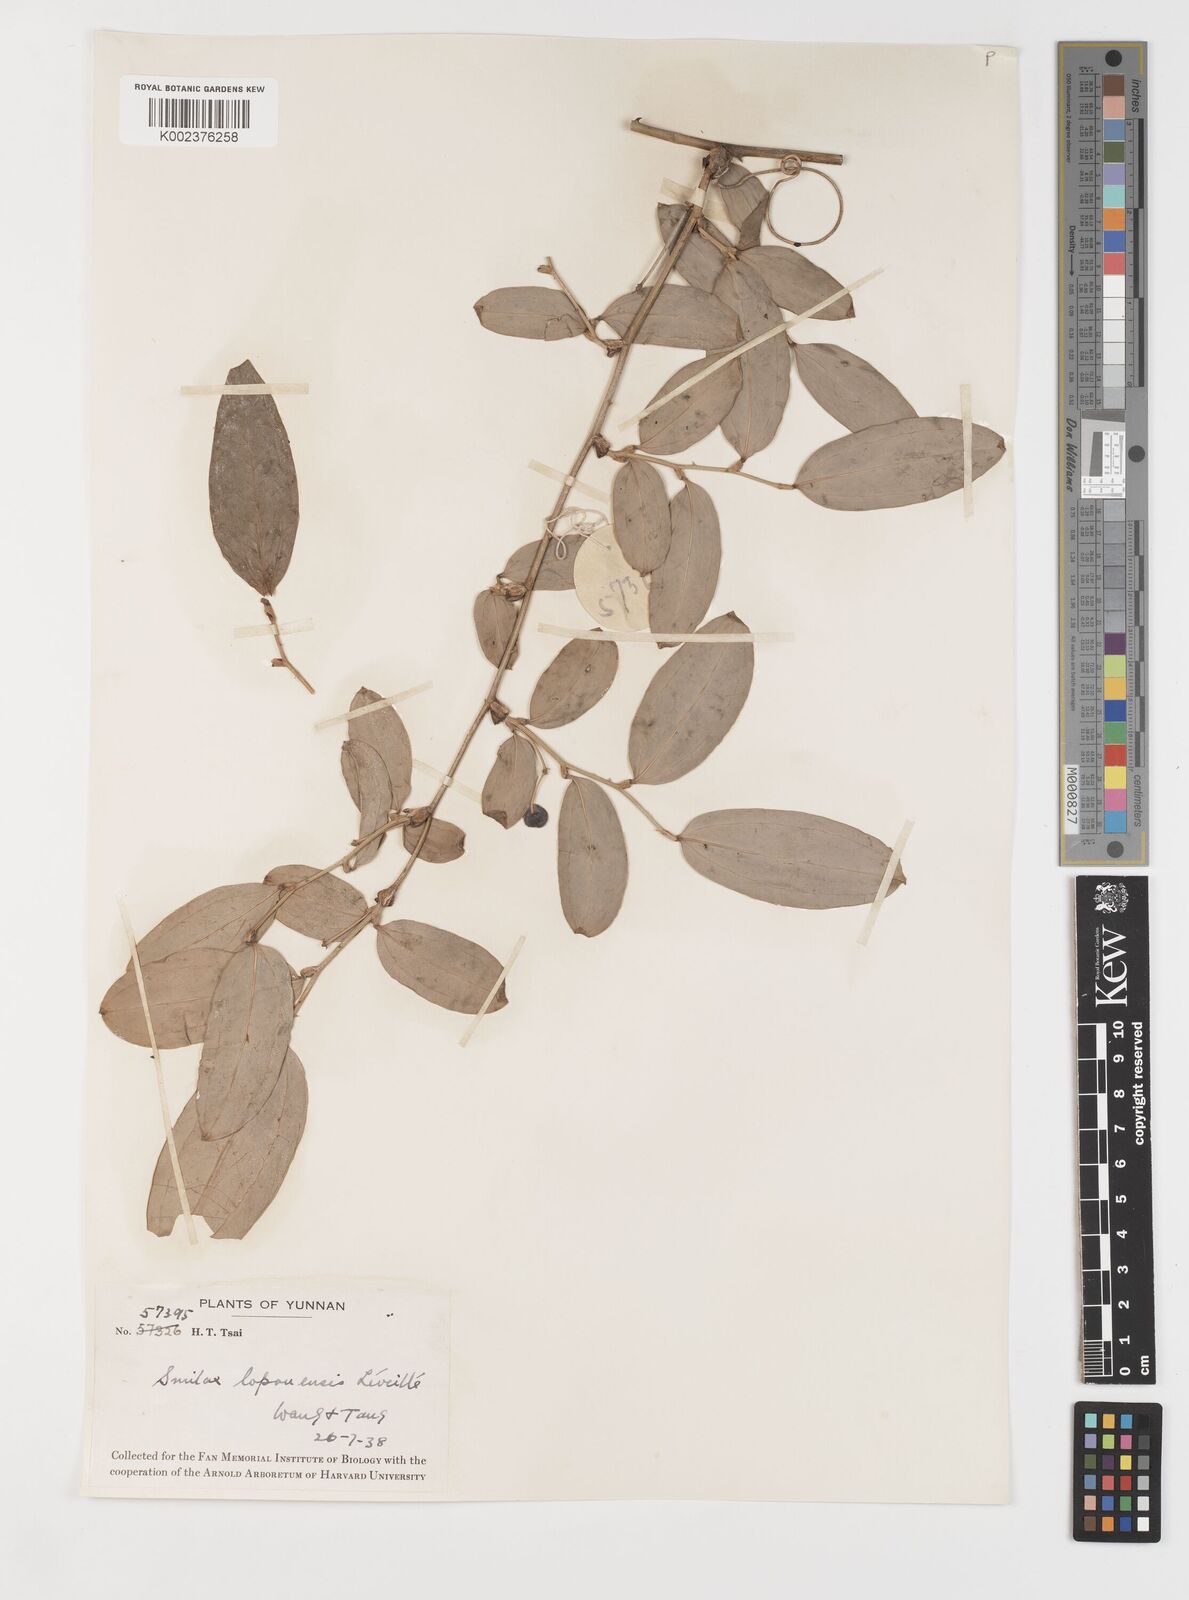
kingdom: Plantae
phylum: Tracheophyta
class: Liliopsida
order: Liliales
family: Smilacaceae
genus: Smilax
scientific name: Smilax megalantha
